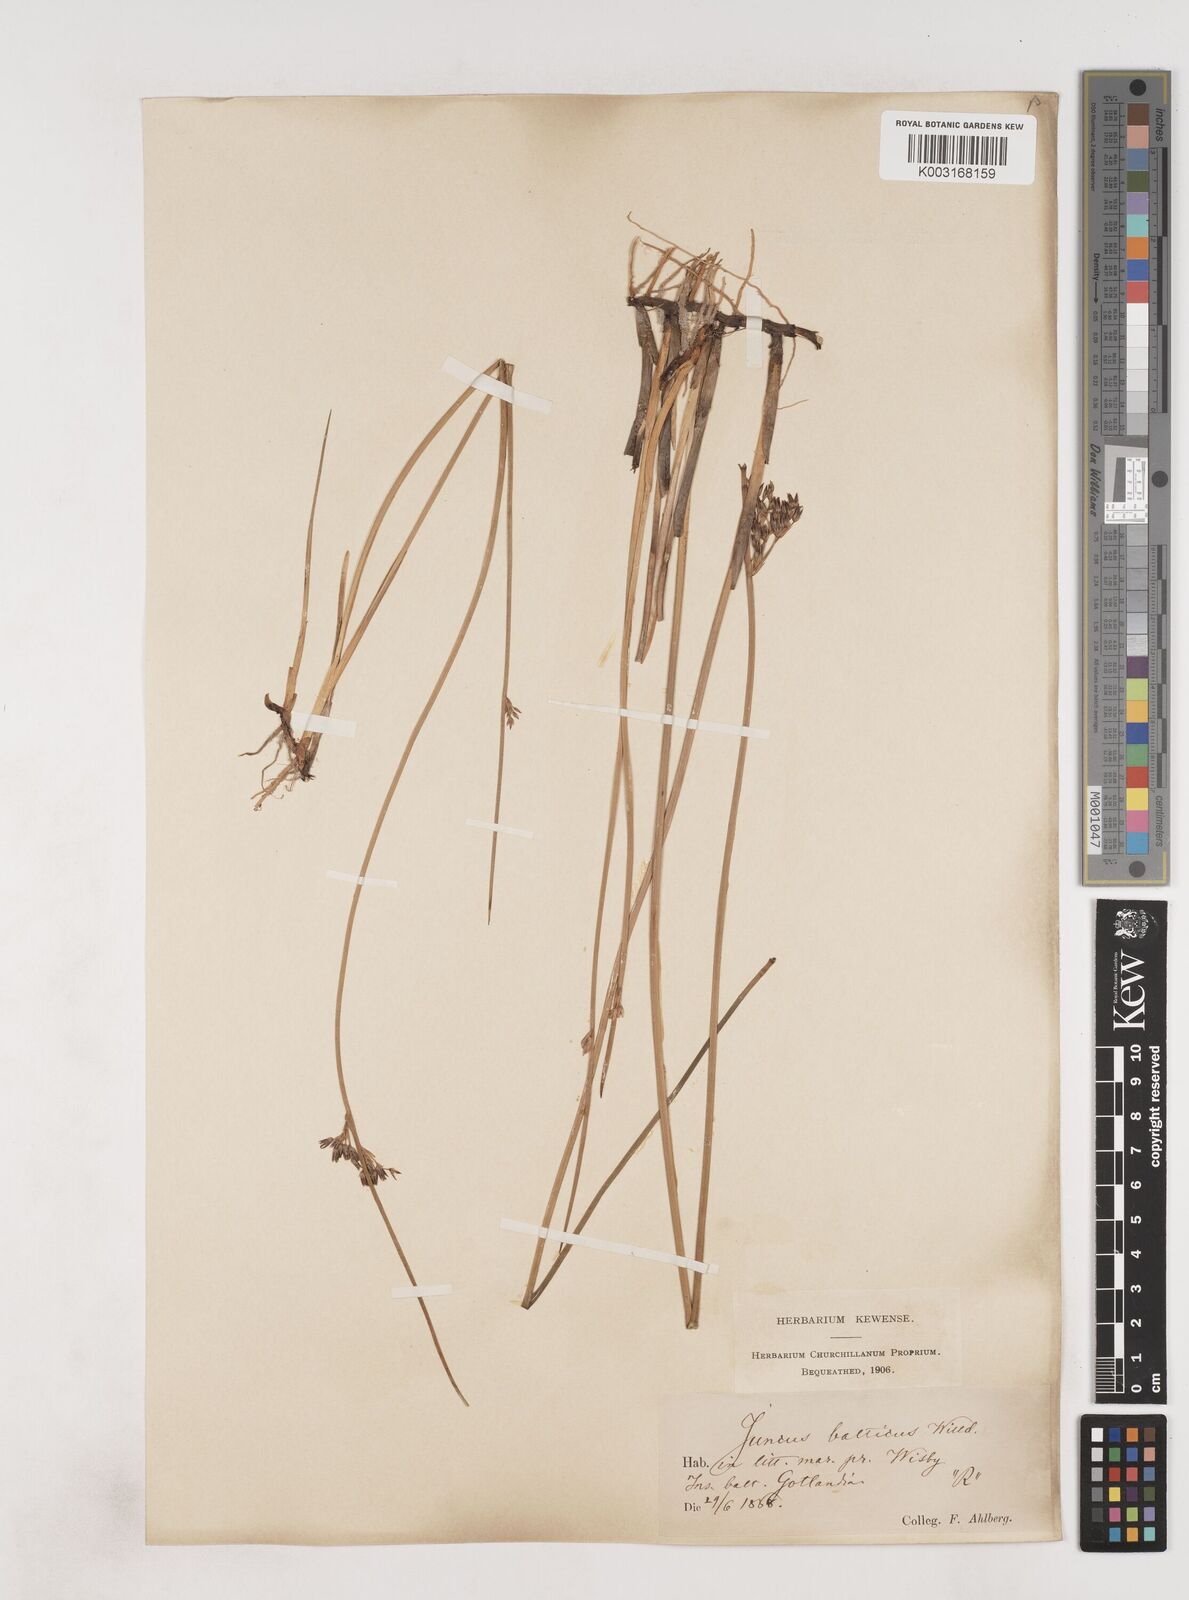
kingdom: Plantae
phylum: Tracheophyta
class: Liliopsida
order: Poales
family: Juncaceae
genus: Juncus
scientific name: Juncus balticus
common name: Baltic rush
